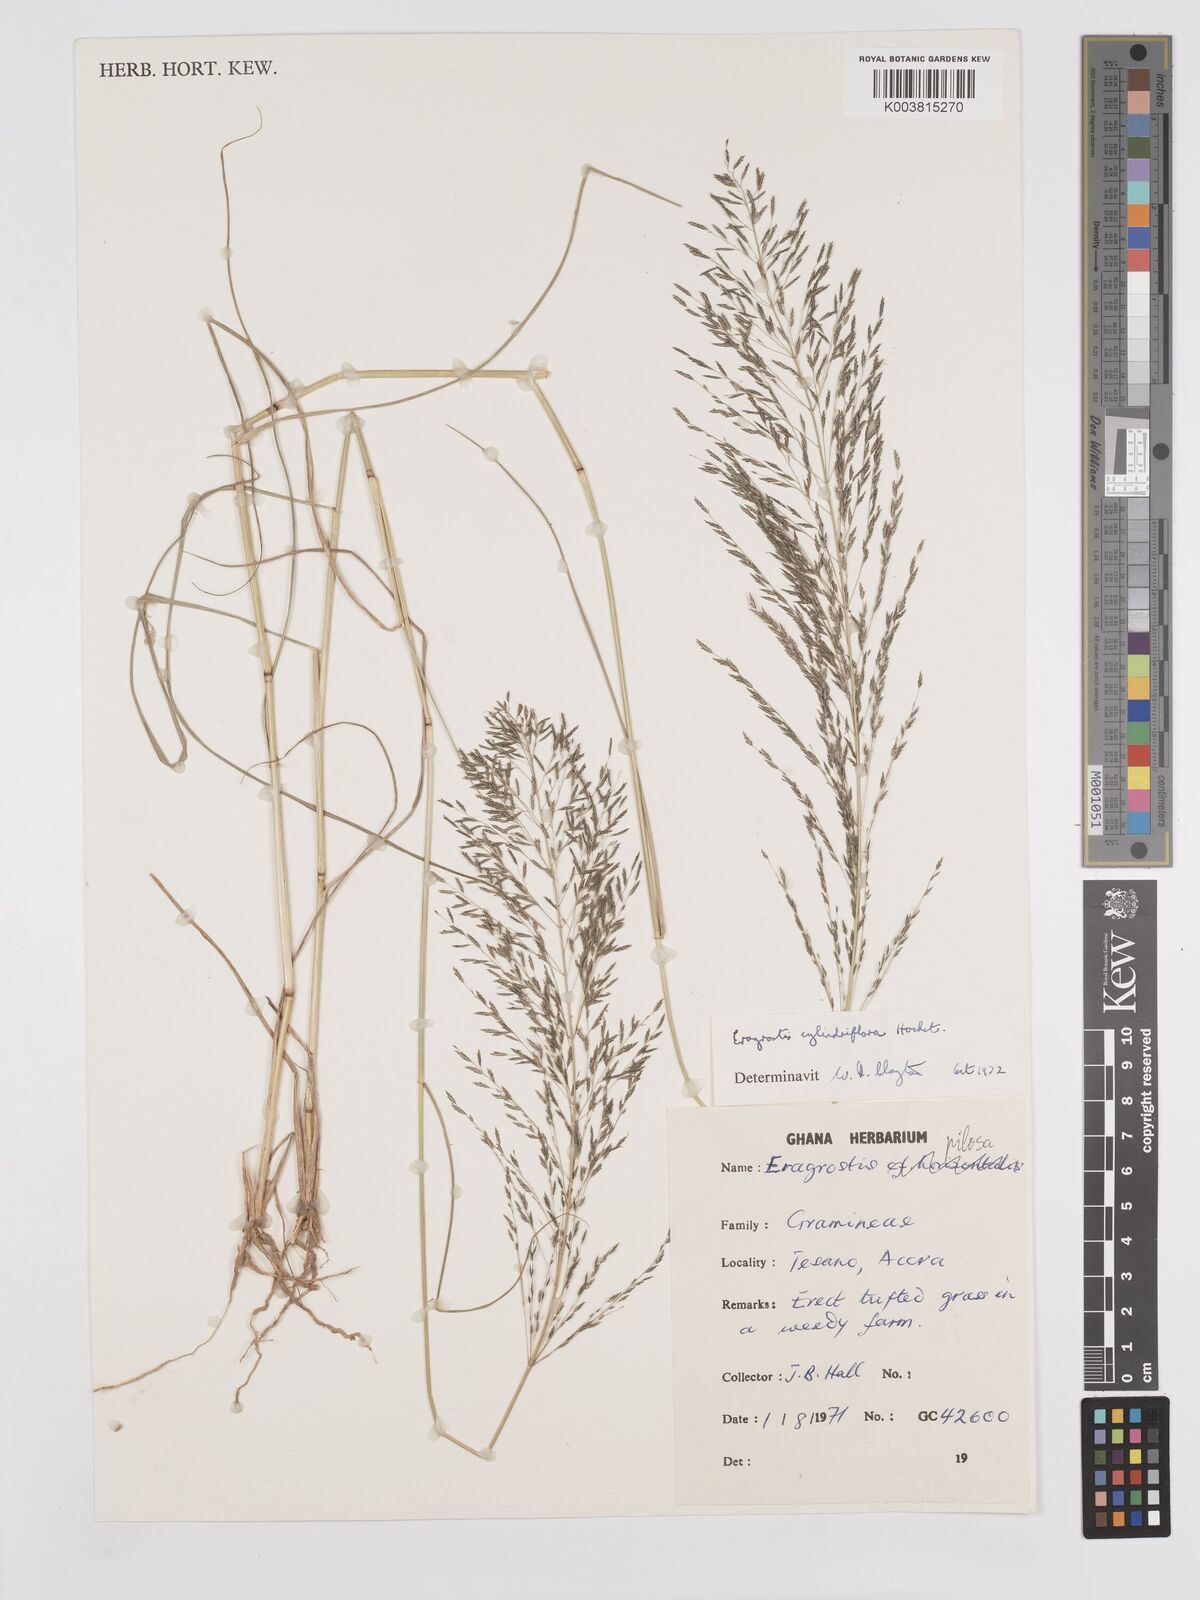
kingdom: Plantae
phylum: Tracheophyta
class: Liliopsida
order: Poales
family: Poaceae
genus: Eragrostis
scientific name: Eragrostis cylindriflora
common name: Cylinderflower lovegrass
